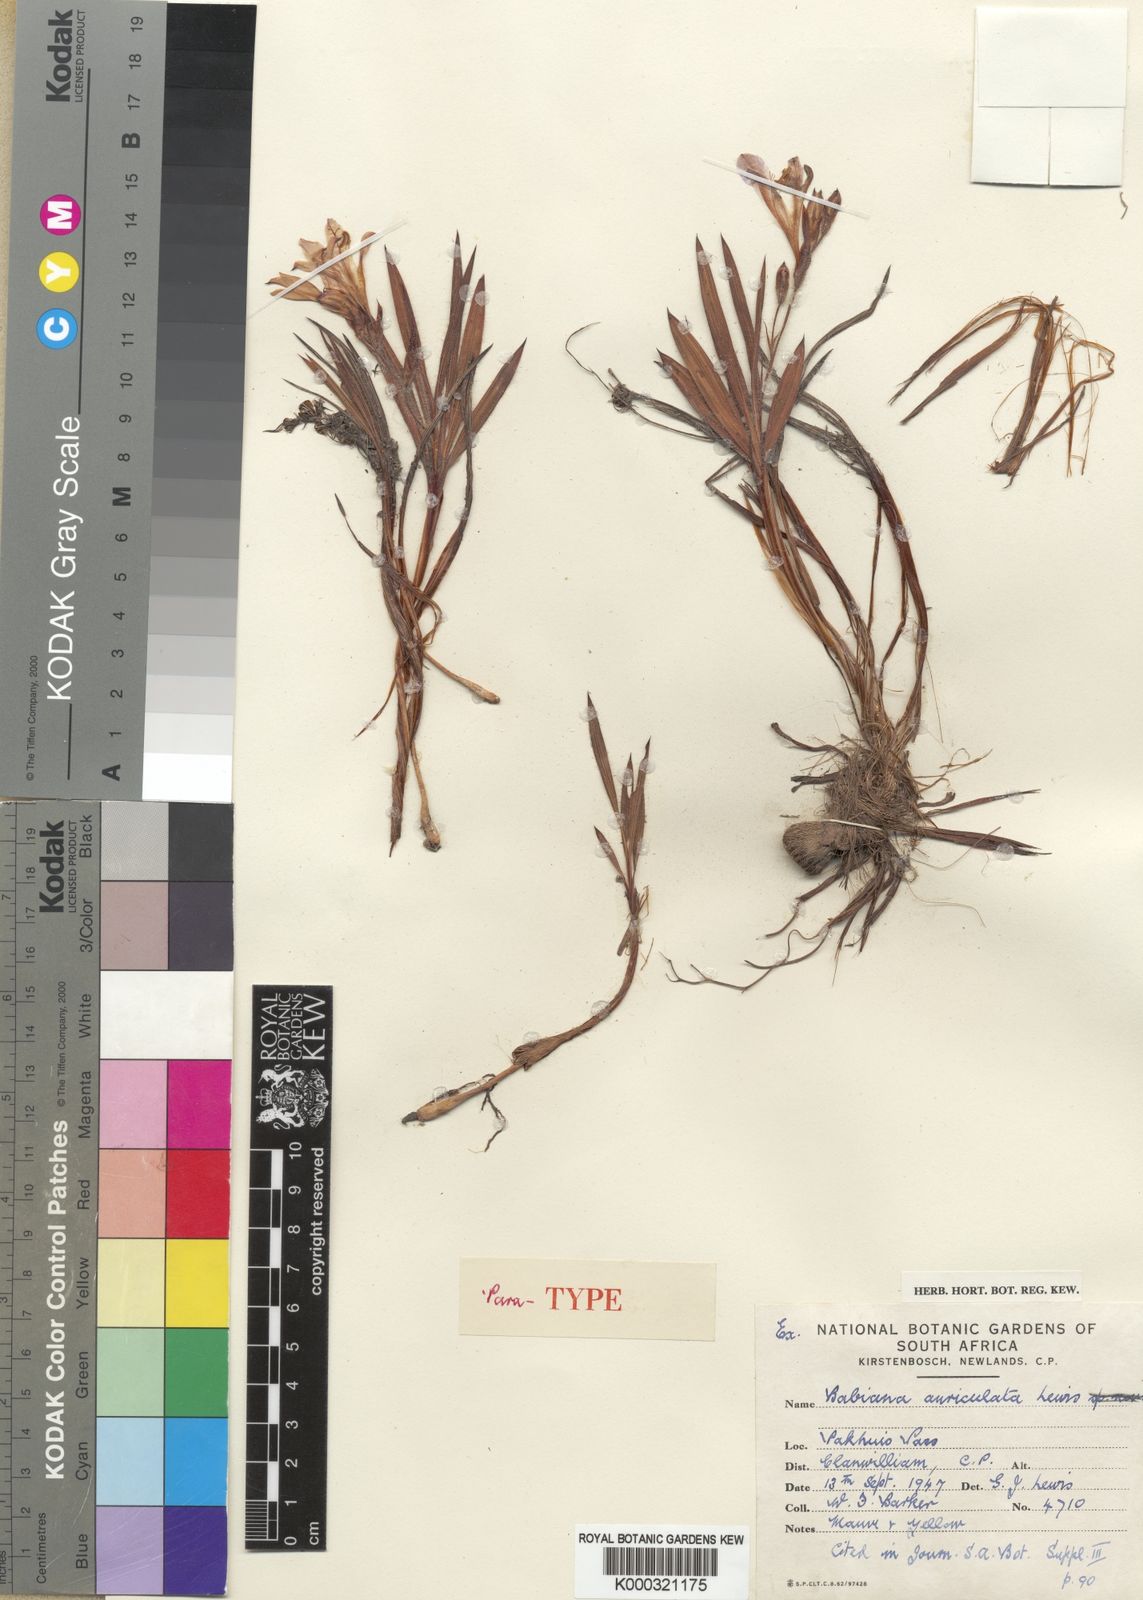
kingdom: Plantae
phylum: Tracheophyta
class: Liliopsida
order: Asparagales
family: Iridaceae
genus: Babiana
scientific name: Babiana auriculata
